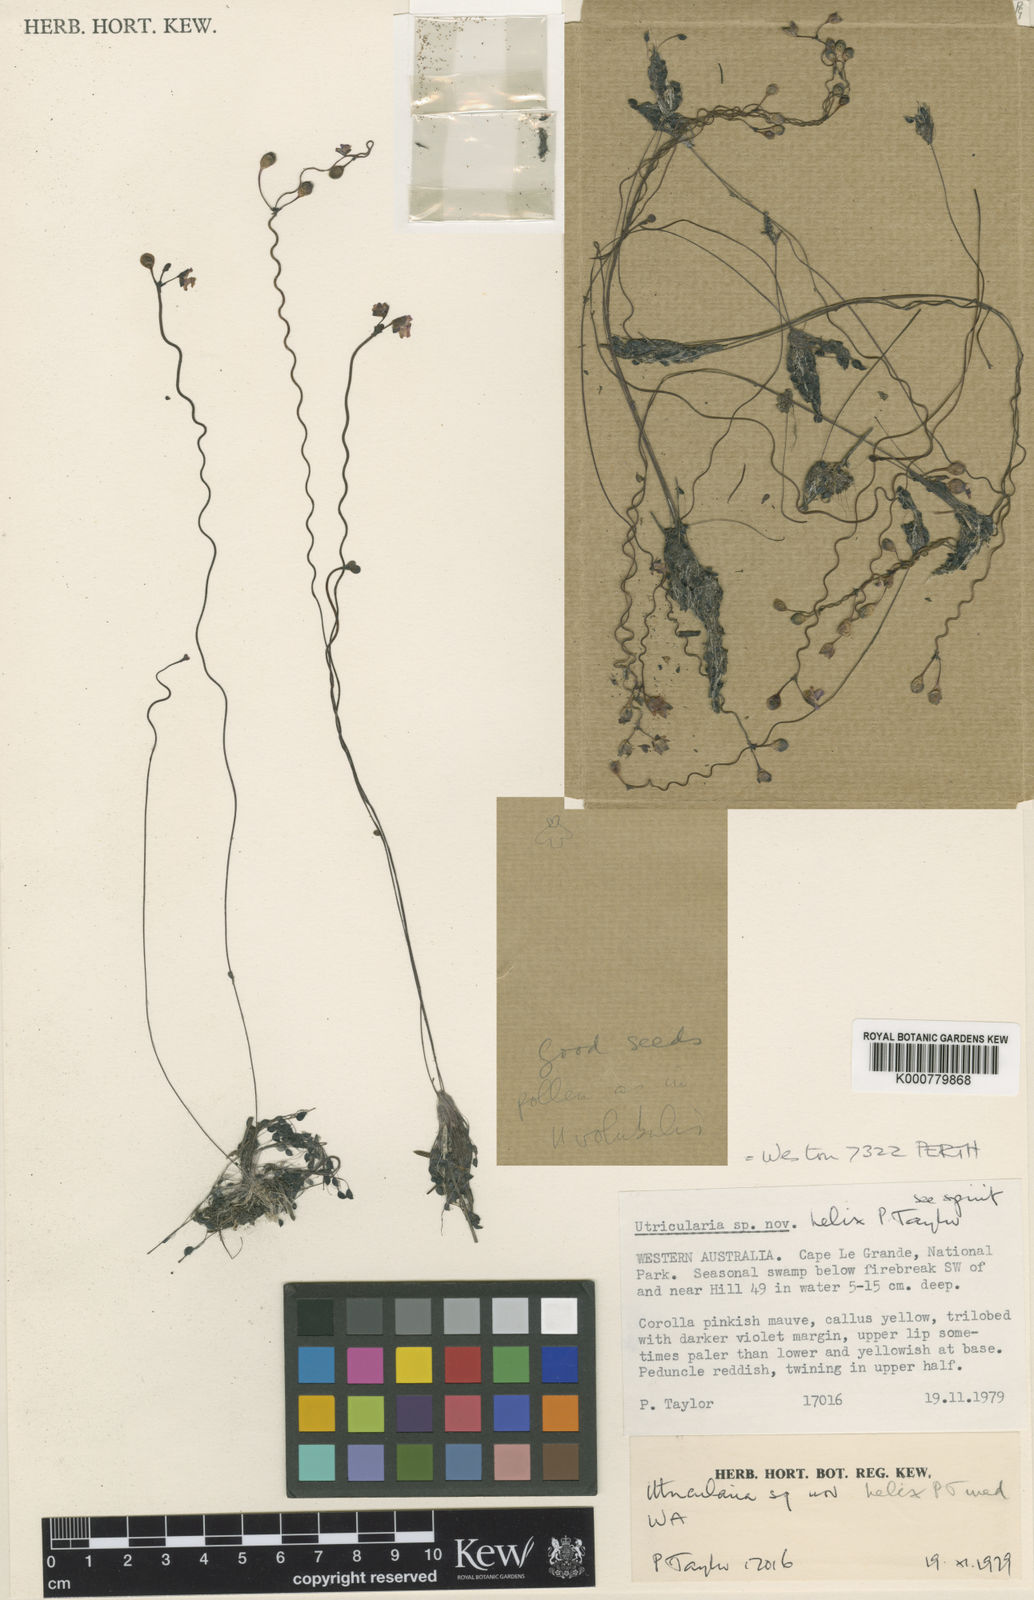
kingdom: Plantae
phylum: Tracheophyta
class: Magnoliopsida
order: Lamiales
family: Lentibulariaceae
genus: Utricularia
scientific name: Utricularia helix
